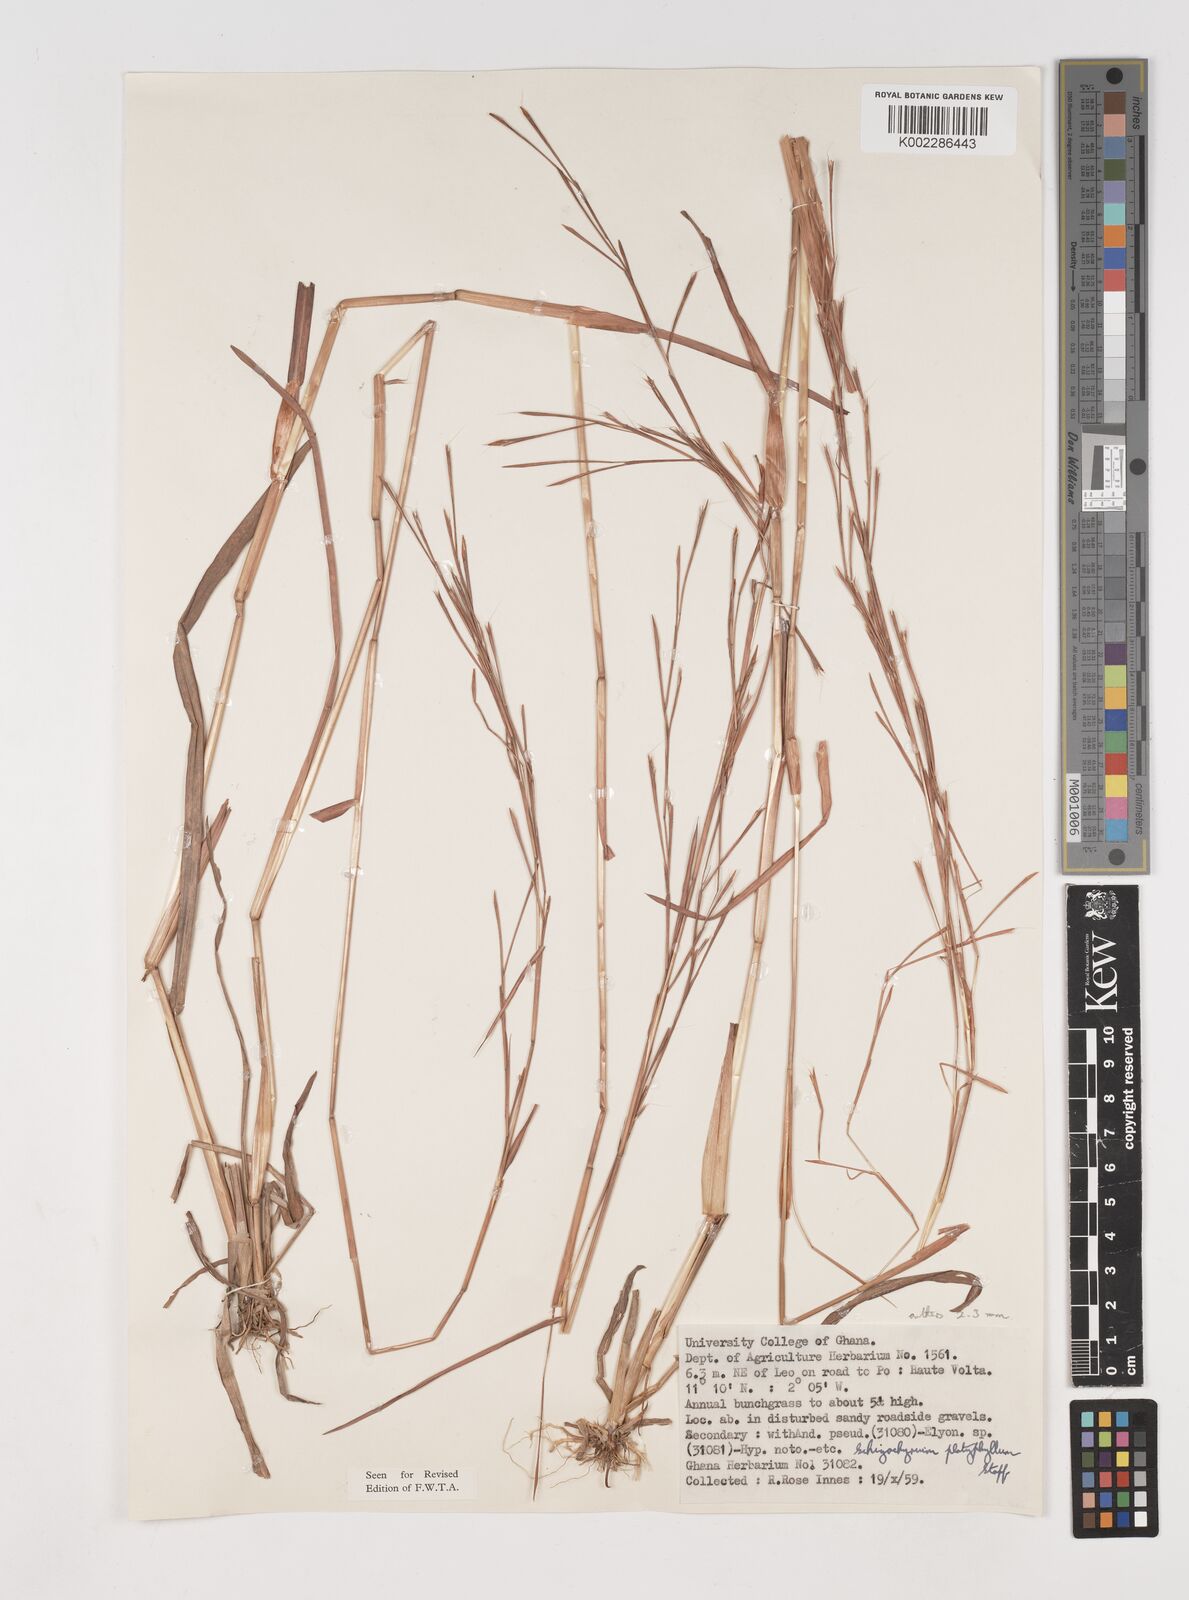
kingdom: Plantae
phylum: Tracheophyta
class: Liliopsida
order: Poales
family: Poaceae
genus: Schizachyrium
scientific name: Schizachyrium platyphyllum
